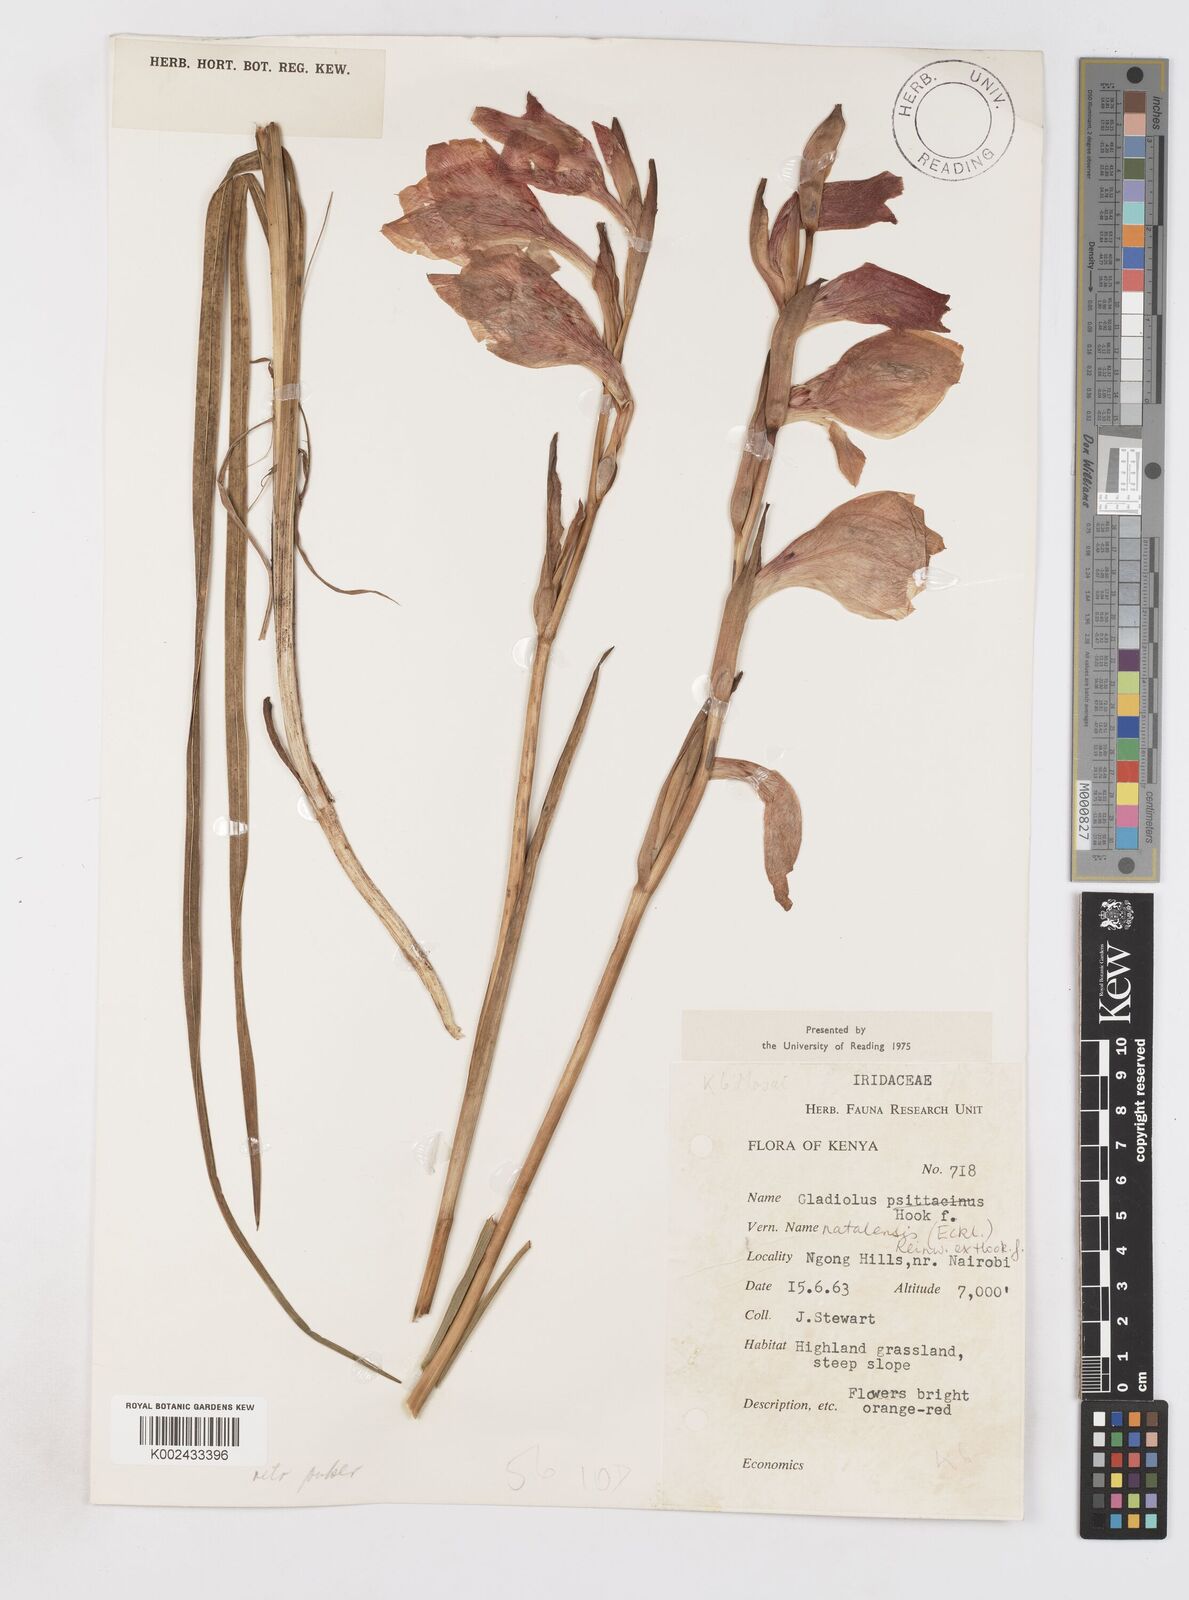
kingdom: Plantae
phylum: Tracheophyta
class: Liliopsida
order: Asparagales
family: Iridaceae
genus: Gladiolus
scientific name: Gladiolus dalenii
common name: Cornflag
